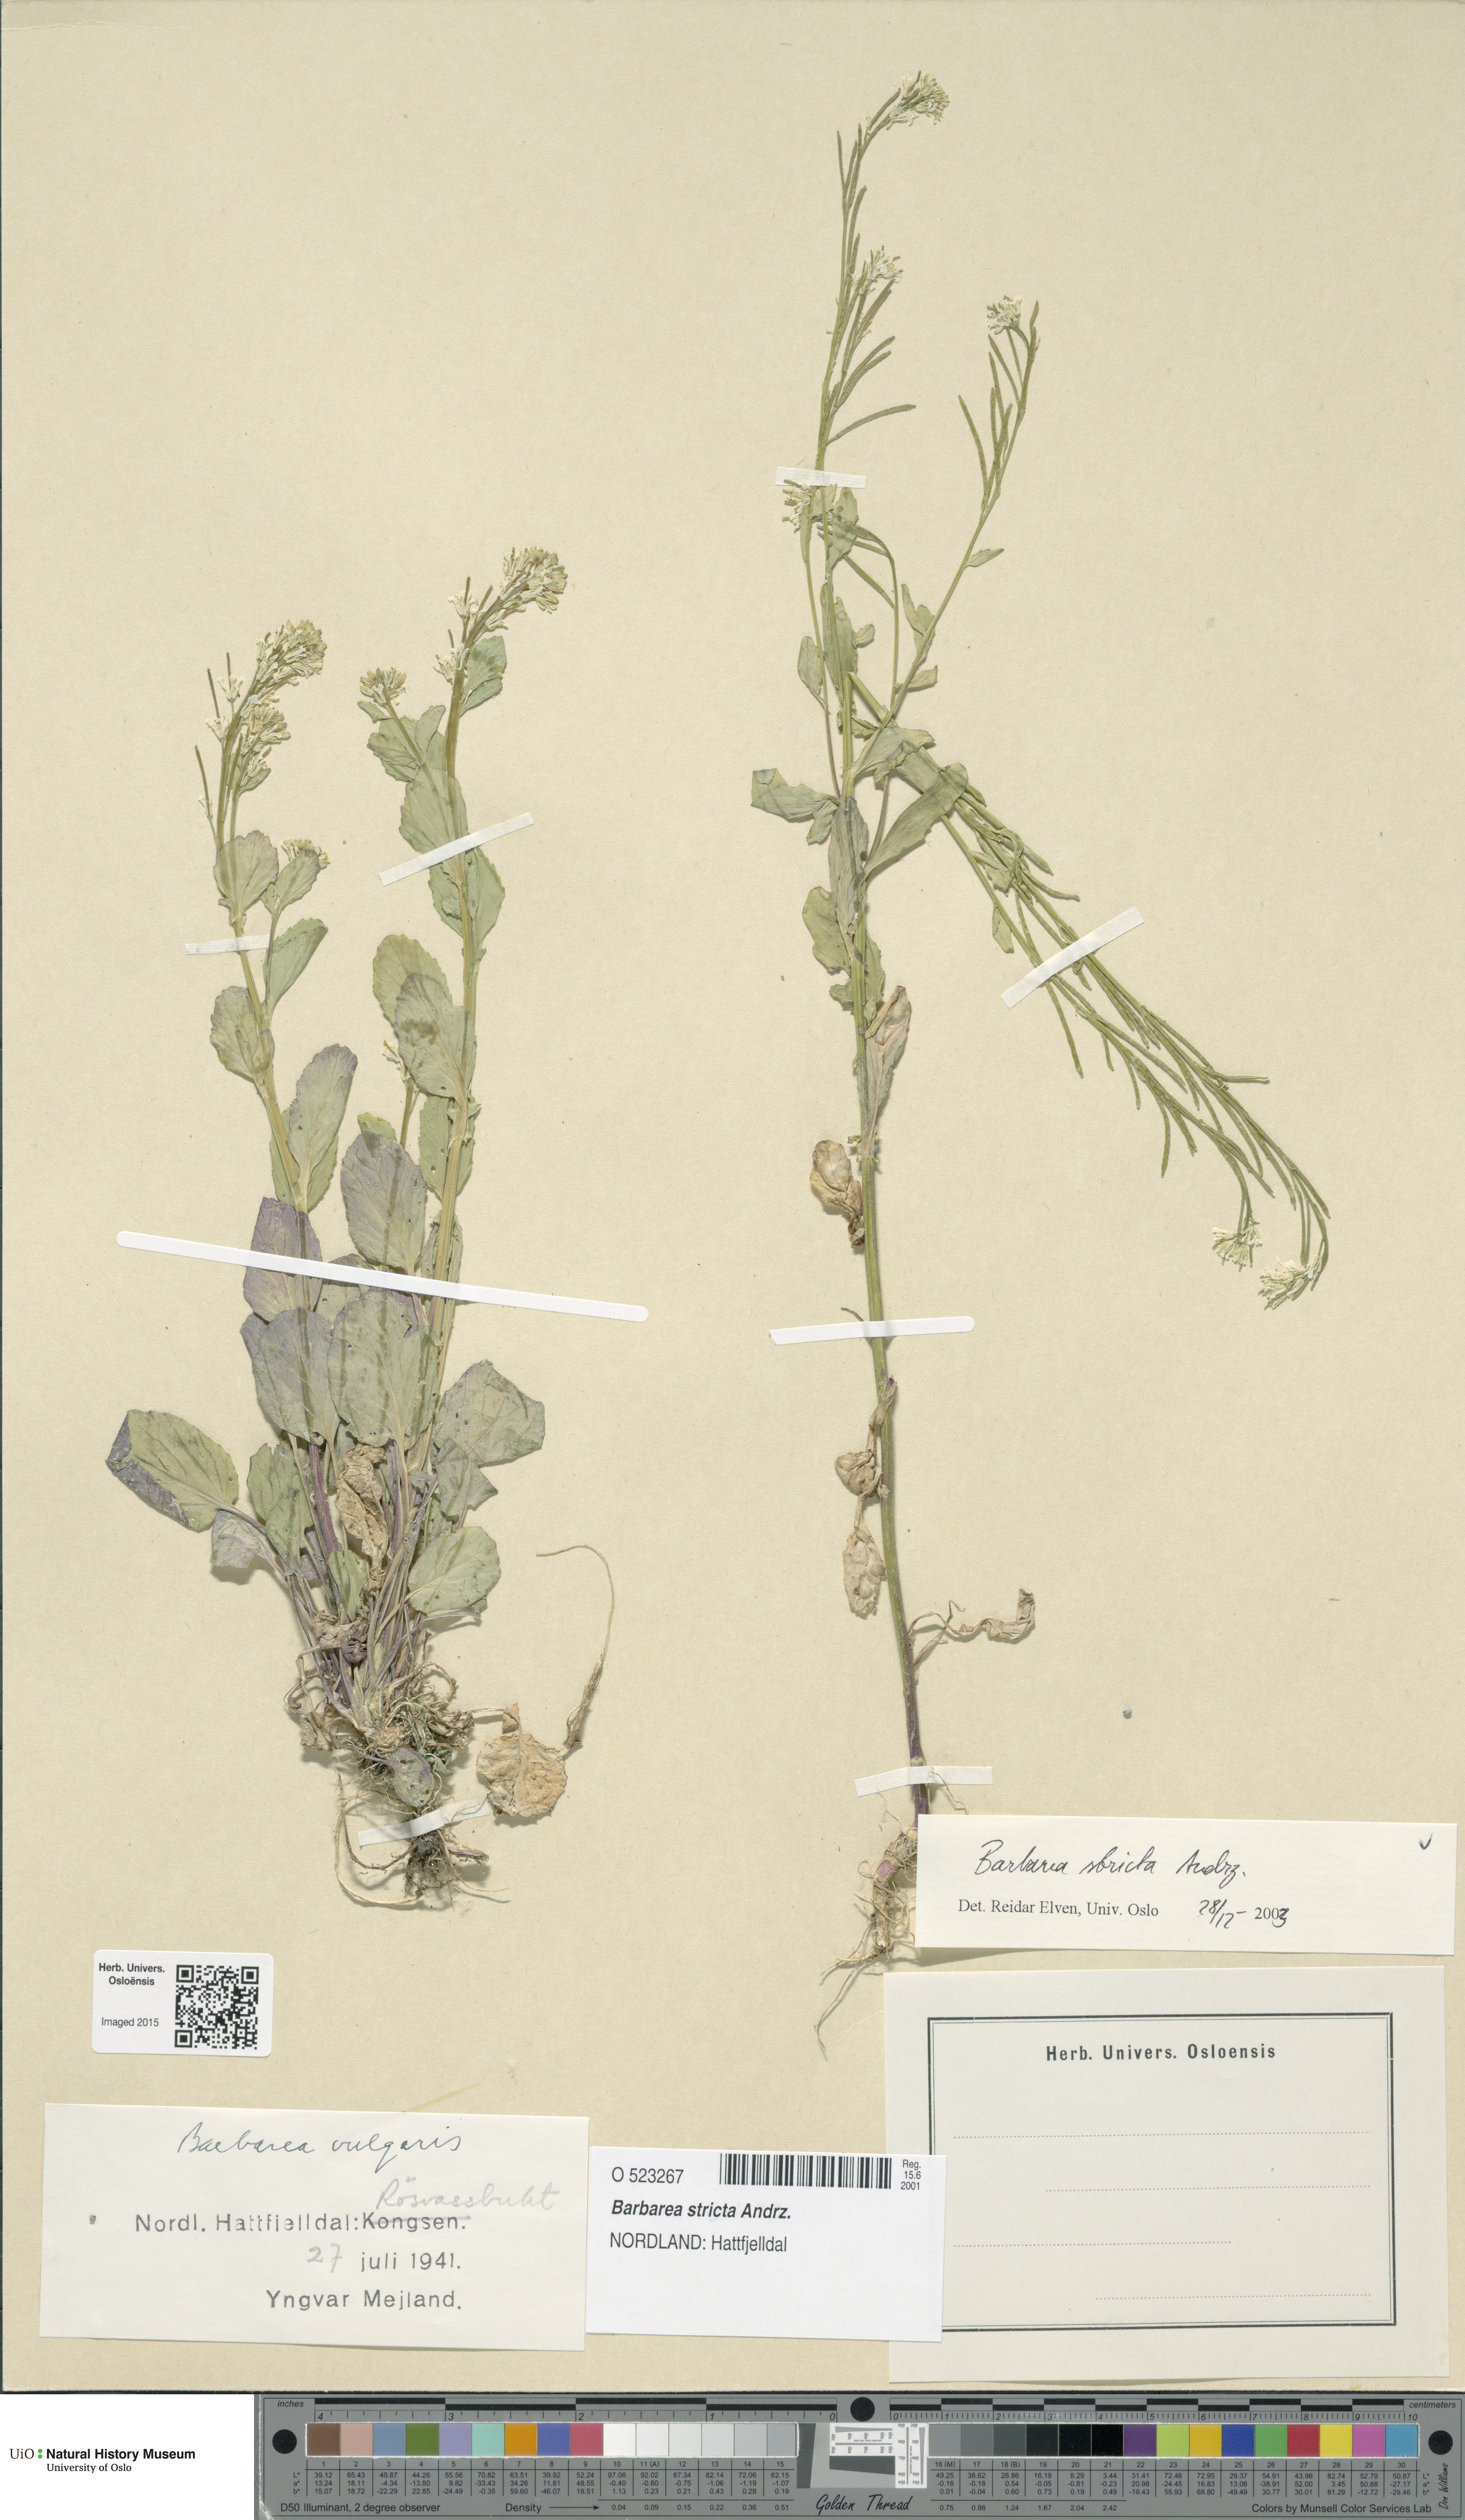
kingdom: Plantae
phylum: Tracheophyta
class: Magnoliopsida
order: Brassicales
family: Brassicaceae
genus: Barbarea
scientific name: Barbarea stricta
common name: Small-flowered winter-cress
